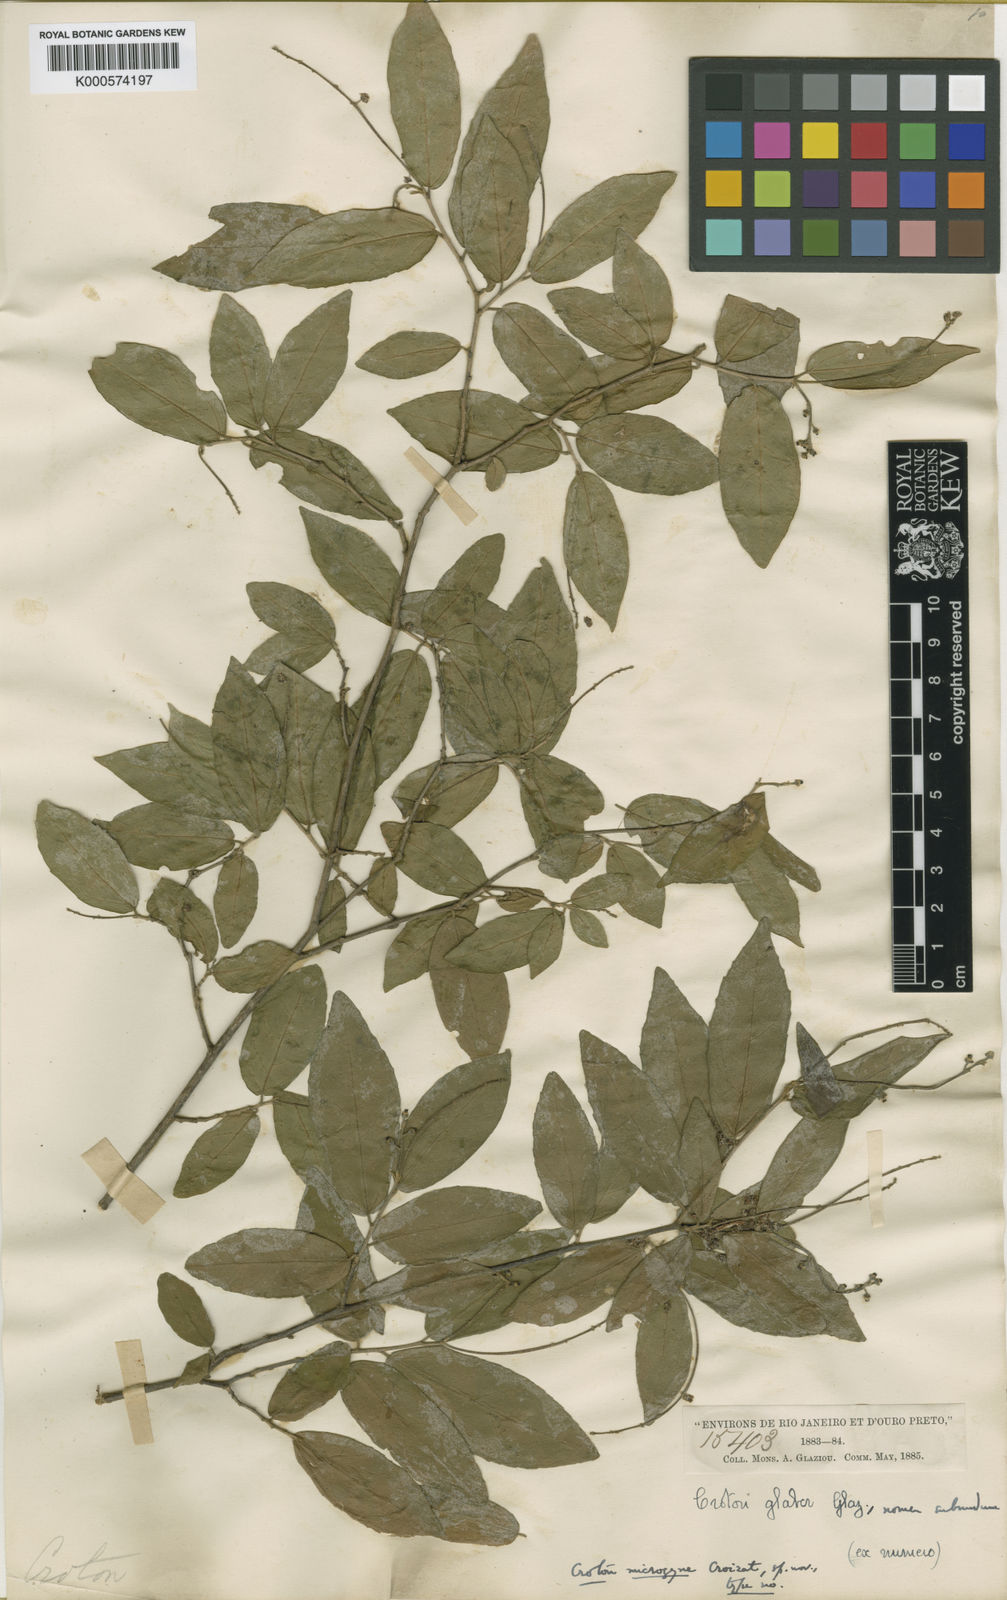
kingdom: Plantae
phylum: Tracheophyta
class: Magnoliopsida
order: Malpighiales
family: Euphorbiaceae
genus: Croton
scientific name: Croton microgyne
